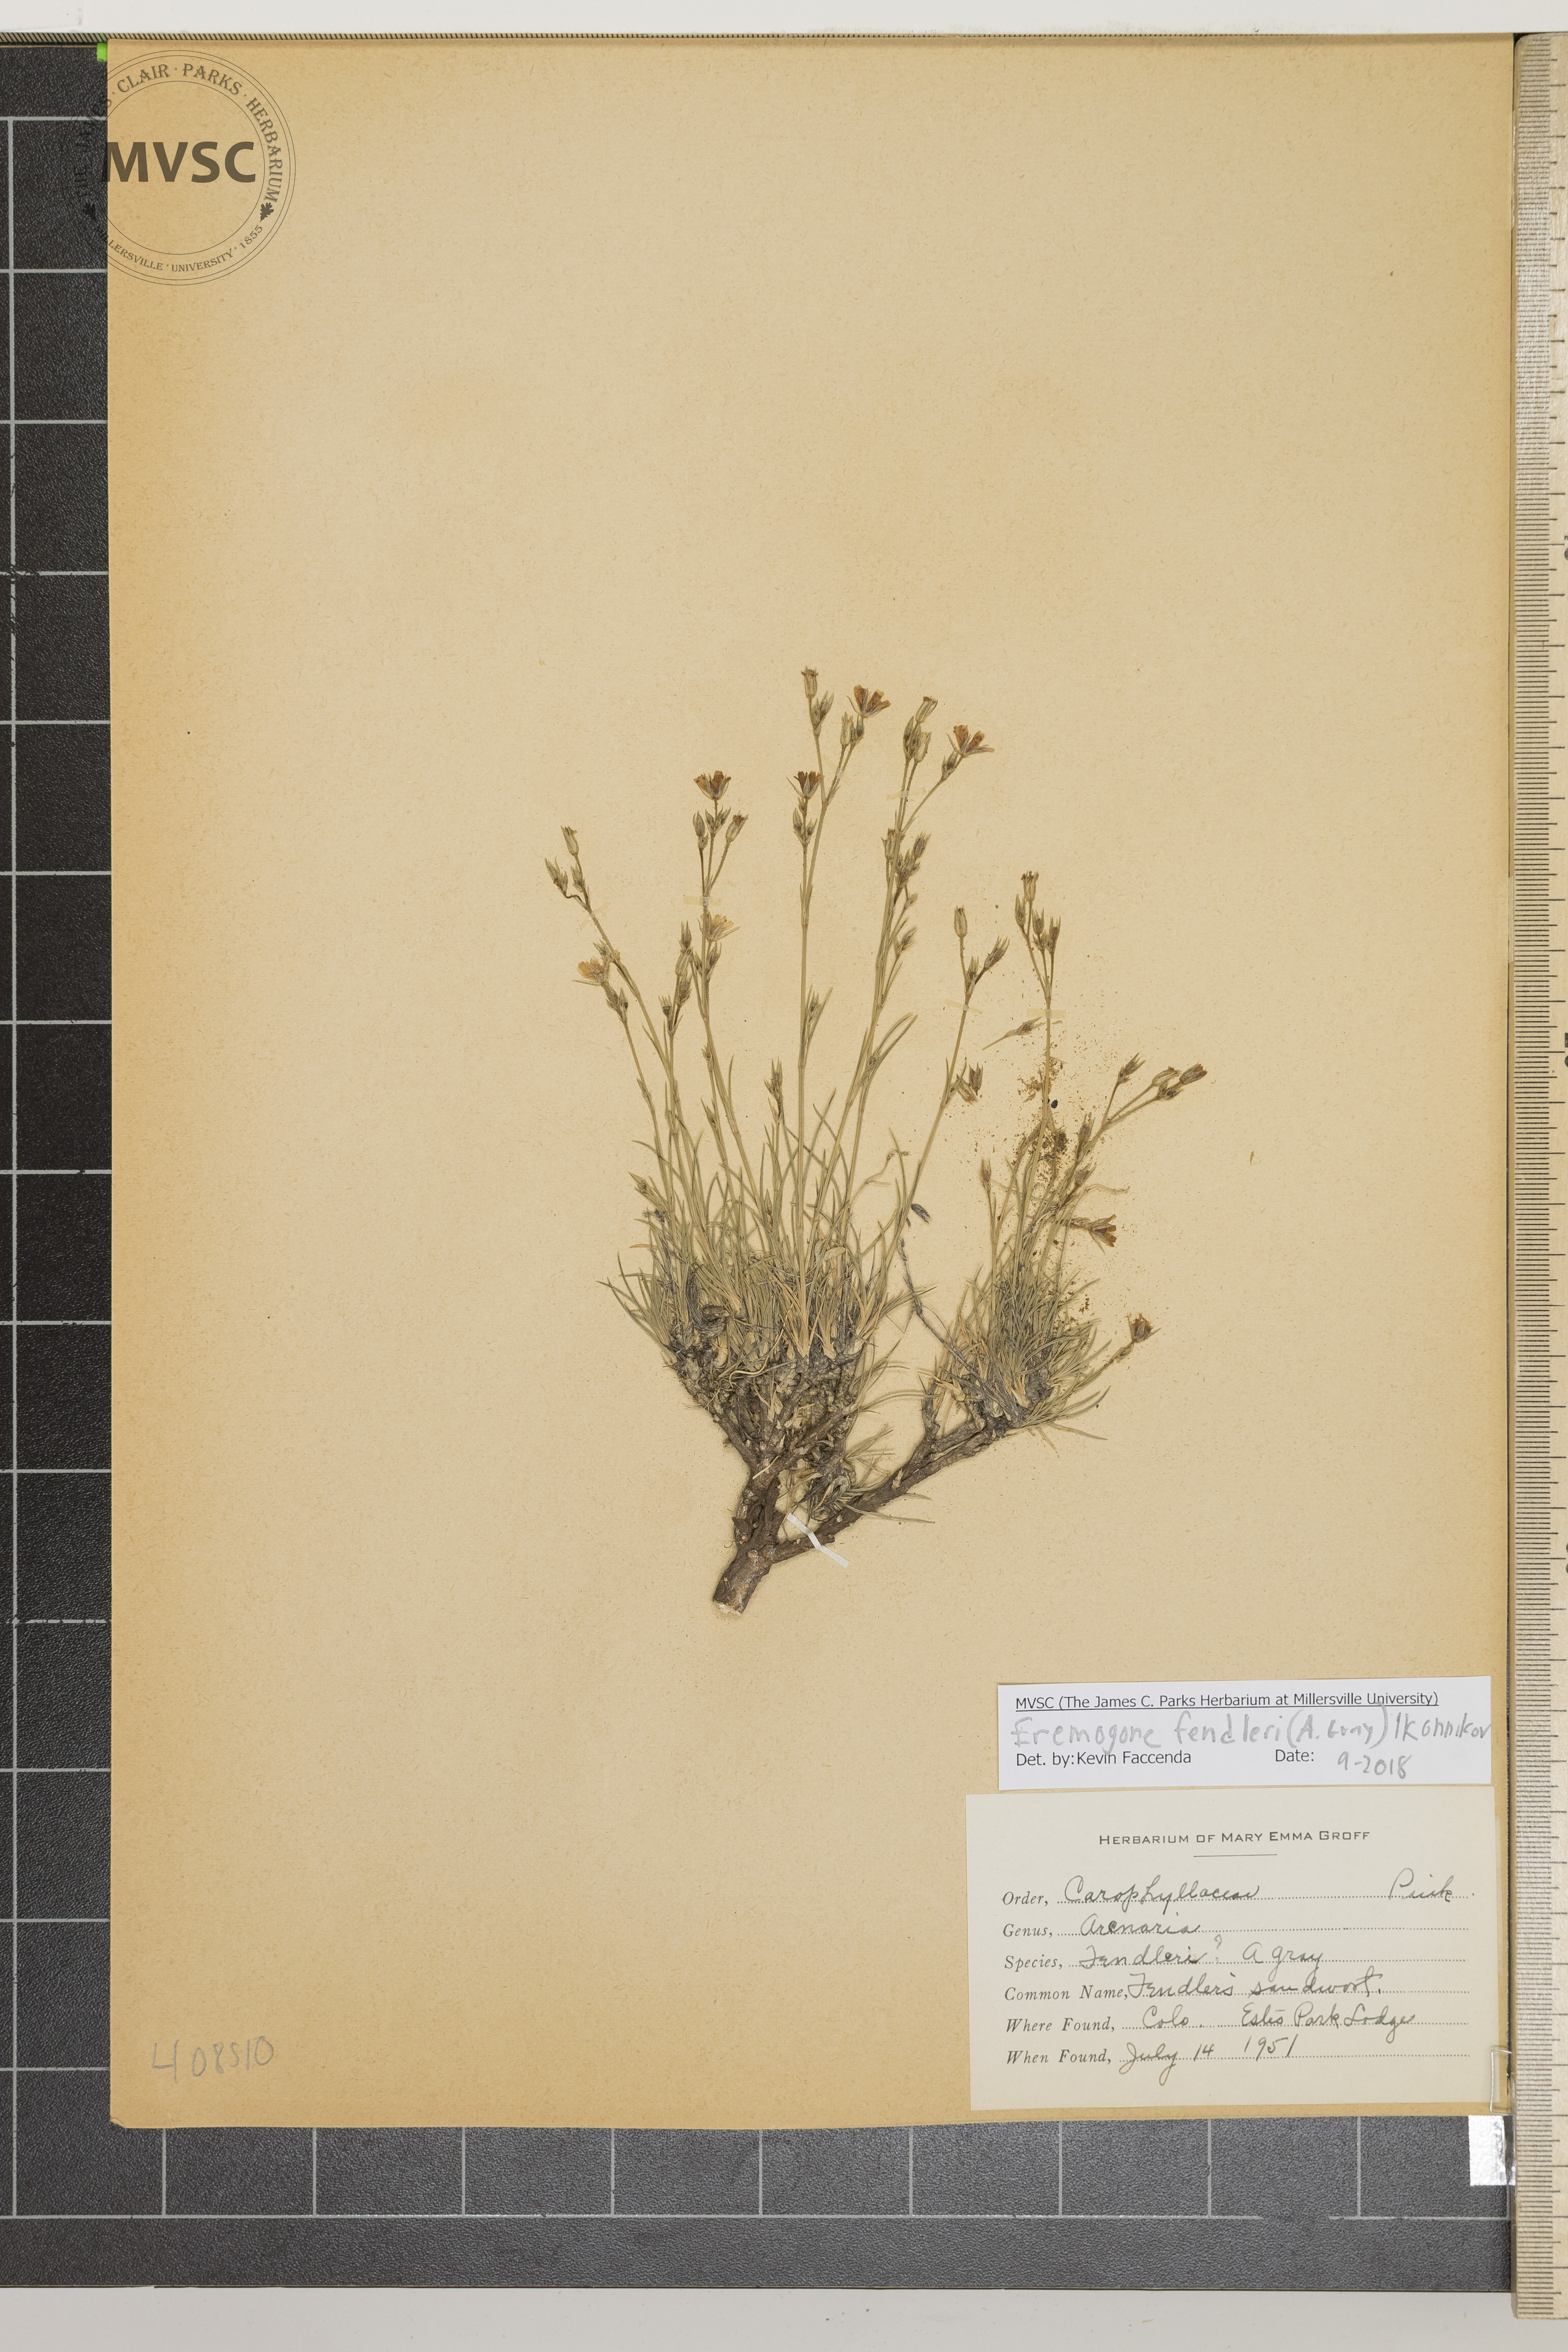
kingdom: Plantae
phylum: Tracheophyta
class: Magnoliopsida
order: Caryophyllales
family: Caryophyllaceae
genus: Eremogone
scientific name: Eremogone fendleri
